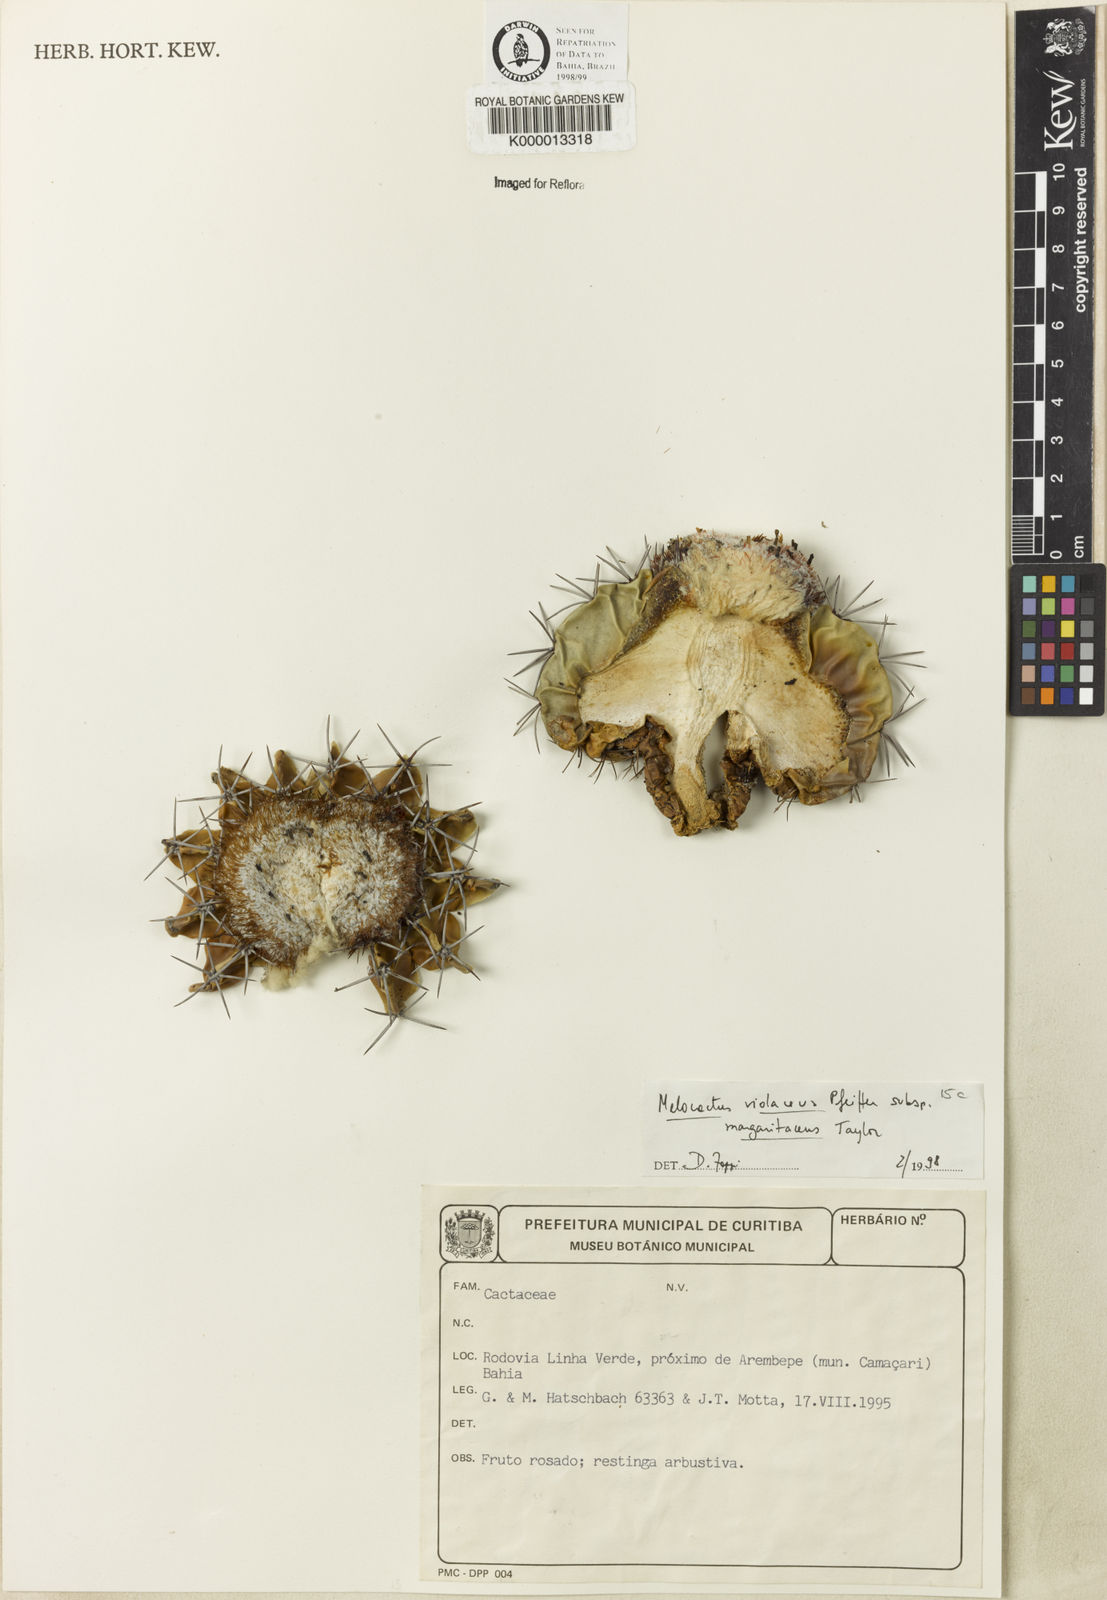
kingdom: Plantae
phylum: Tracheophyta
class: Magnoliopsida
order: Caryophyllales
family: Cactaceae
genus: Melocactus
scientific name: Melocactus violaceus
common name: Turk's-cap cactus
